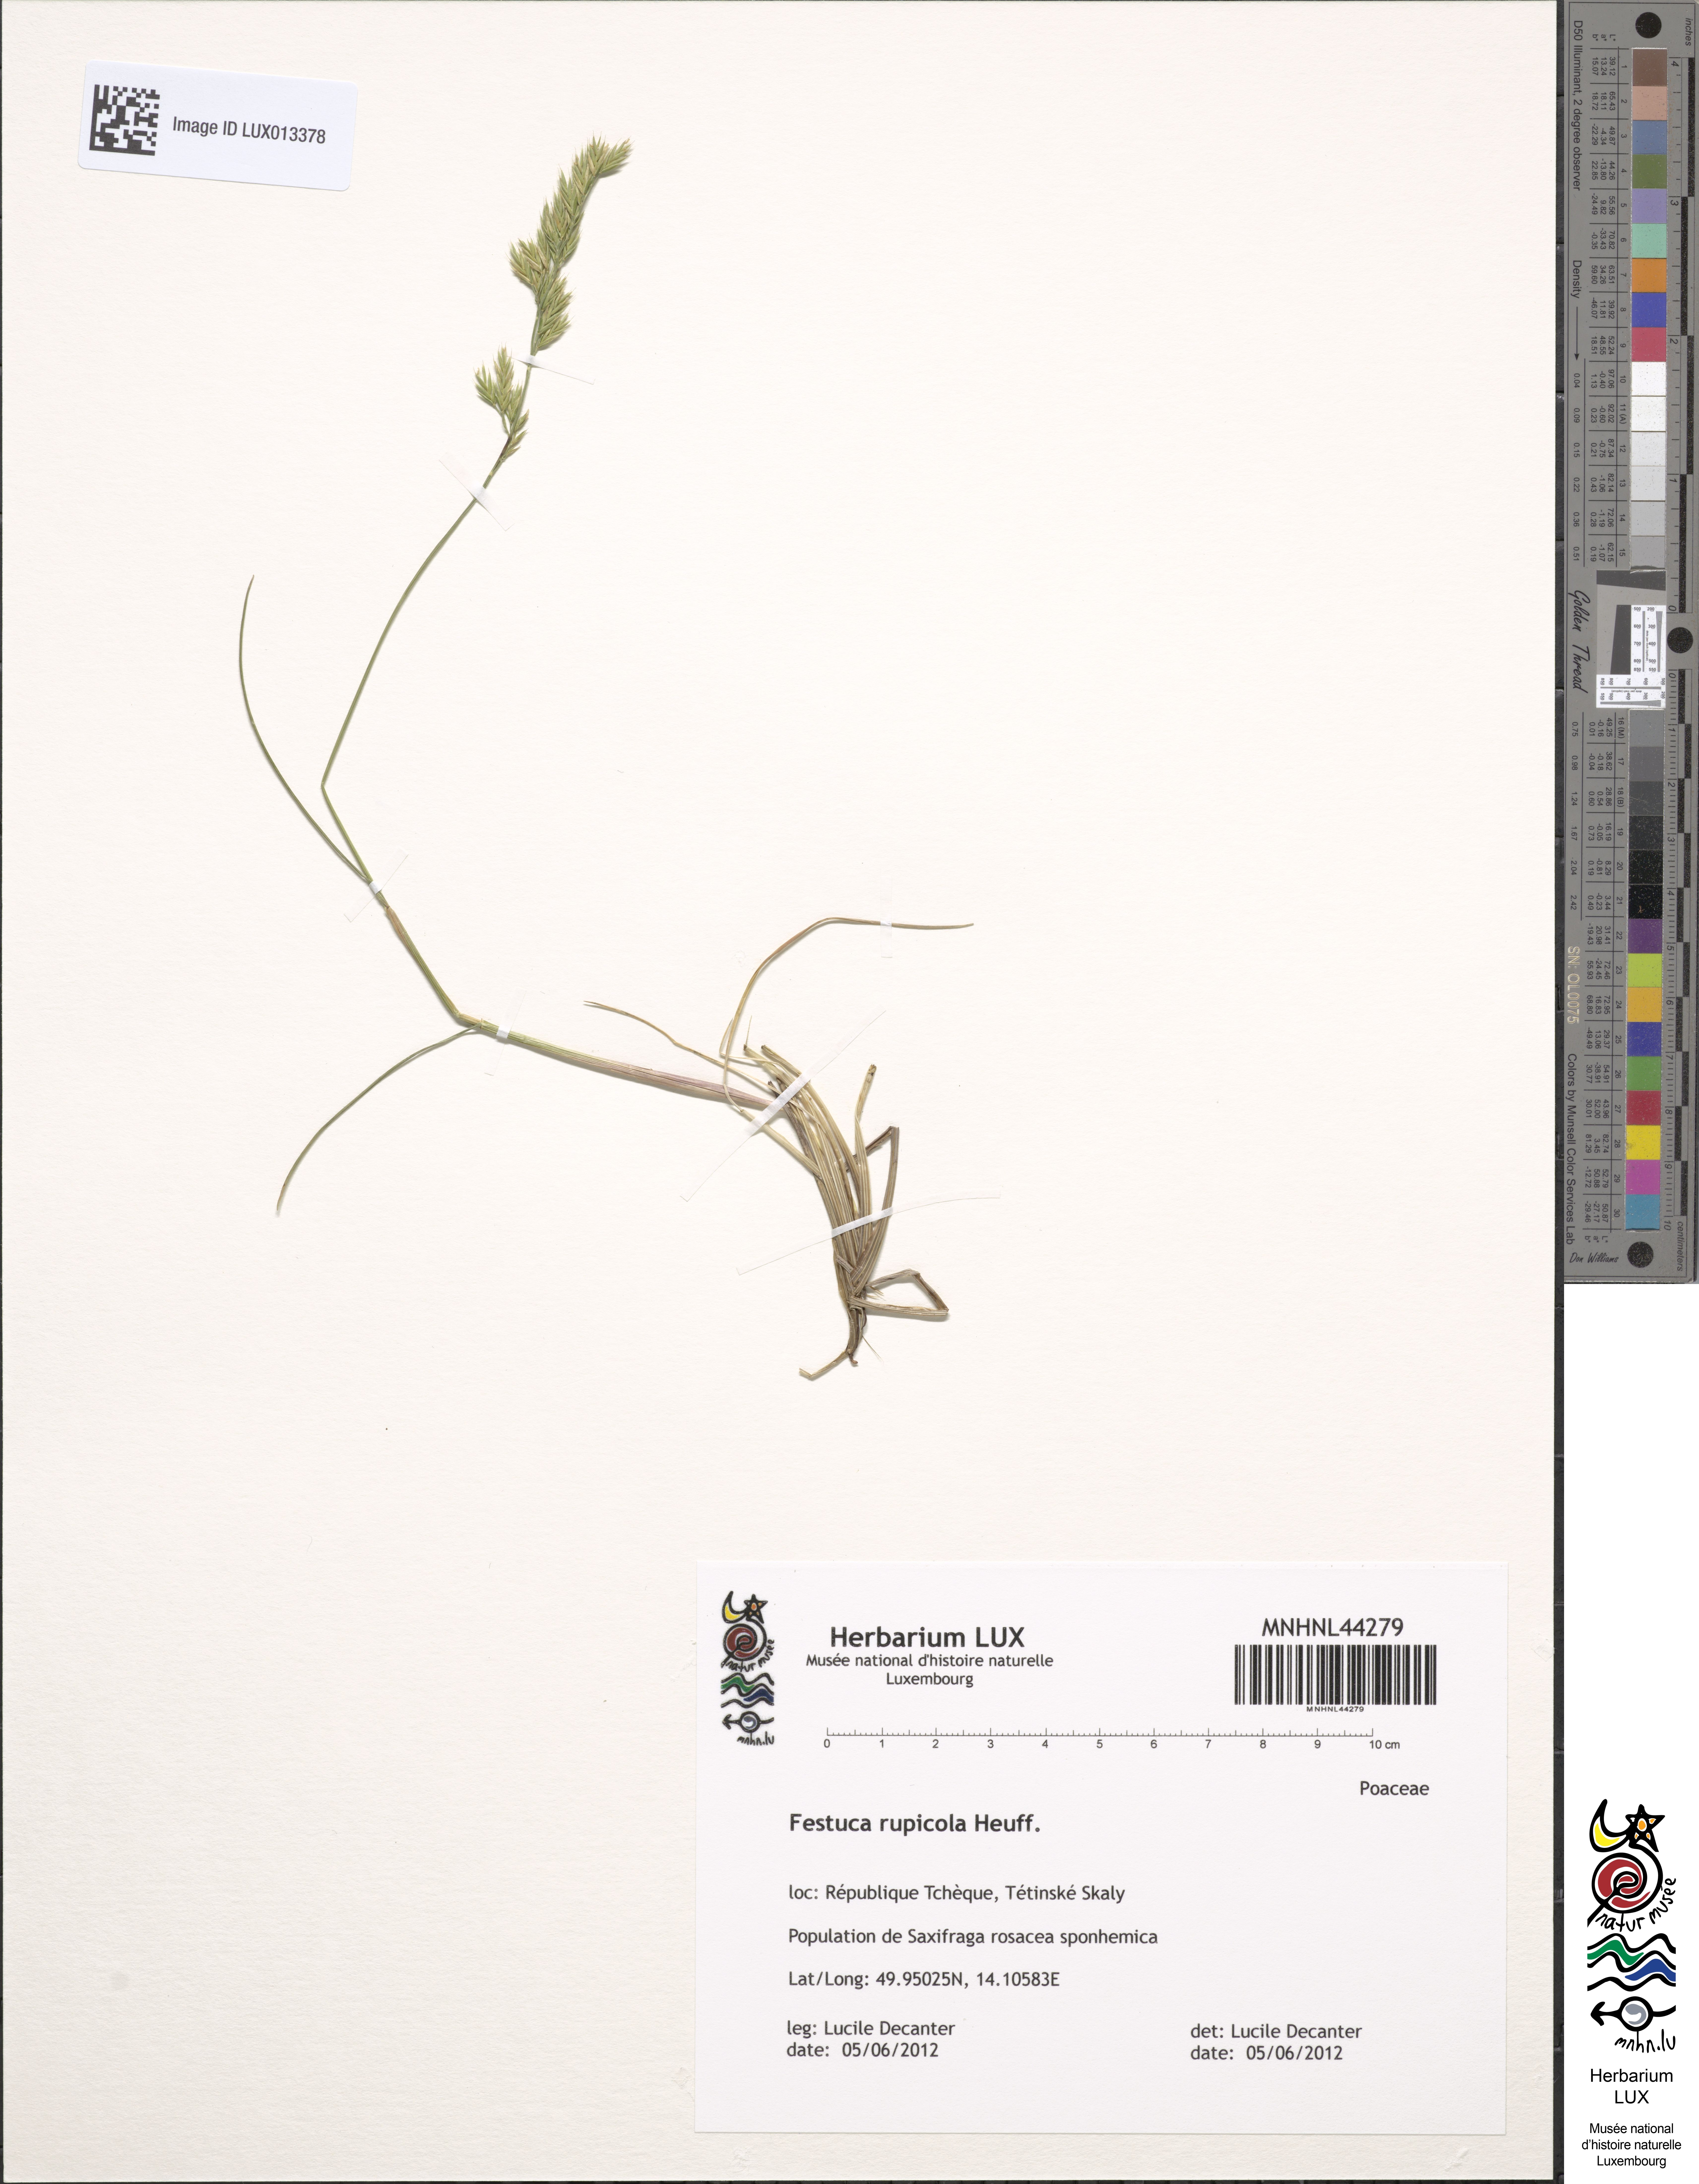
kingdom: Plantae
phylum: Tracheophyta
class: Liliopsida
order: Poales
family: Poaceae
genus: Festuca
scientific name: Festuca rupicola
